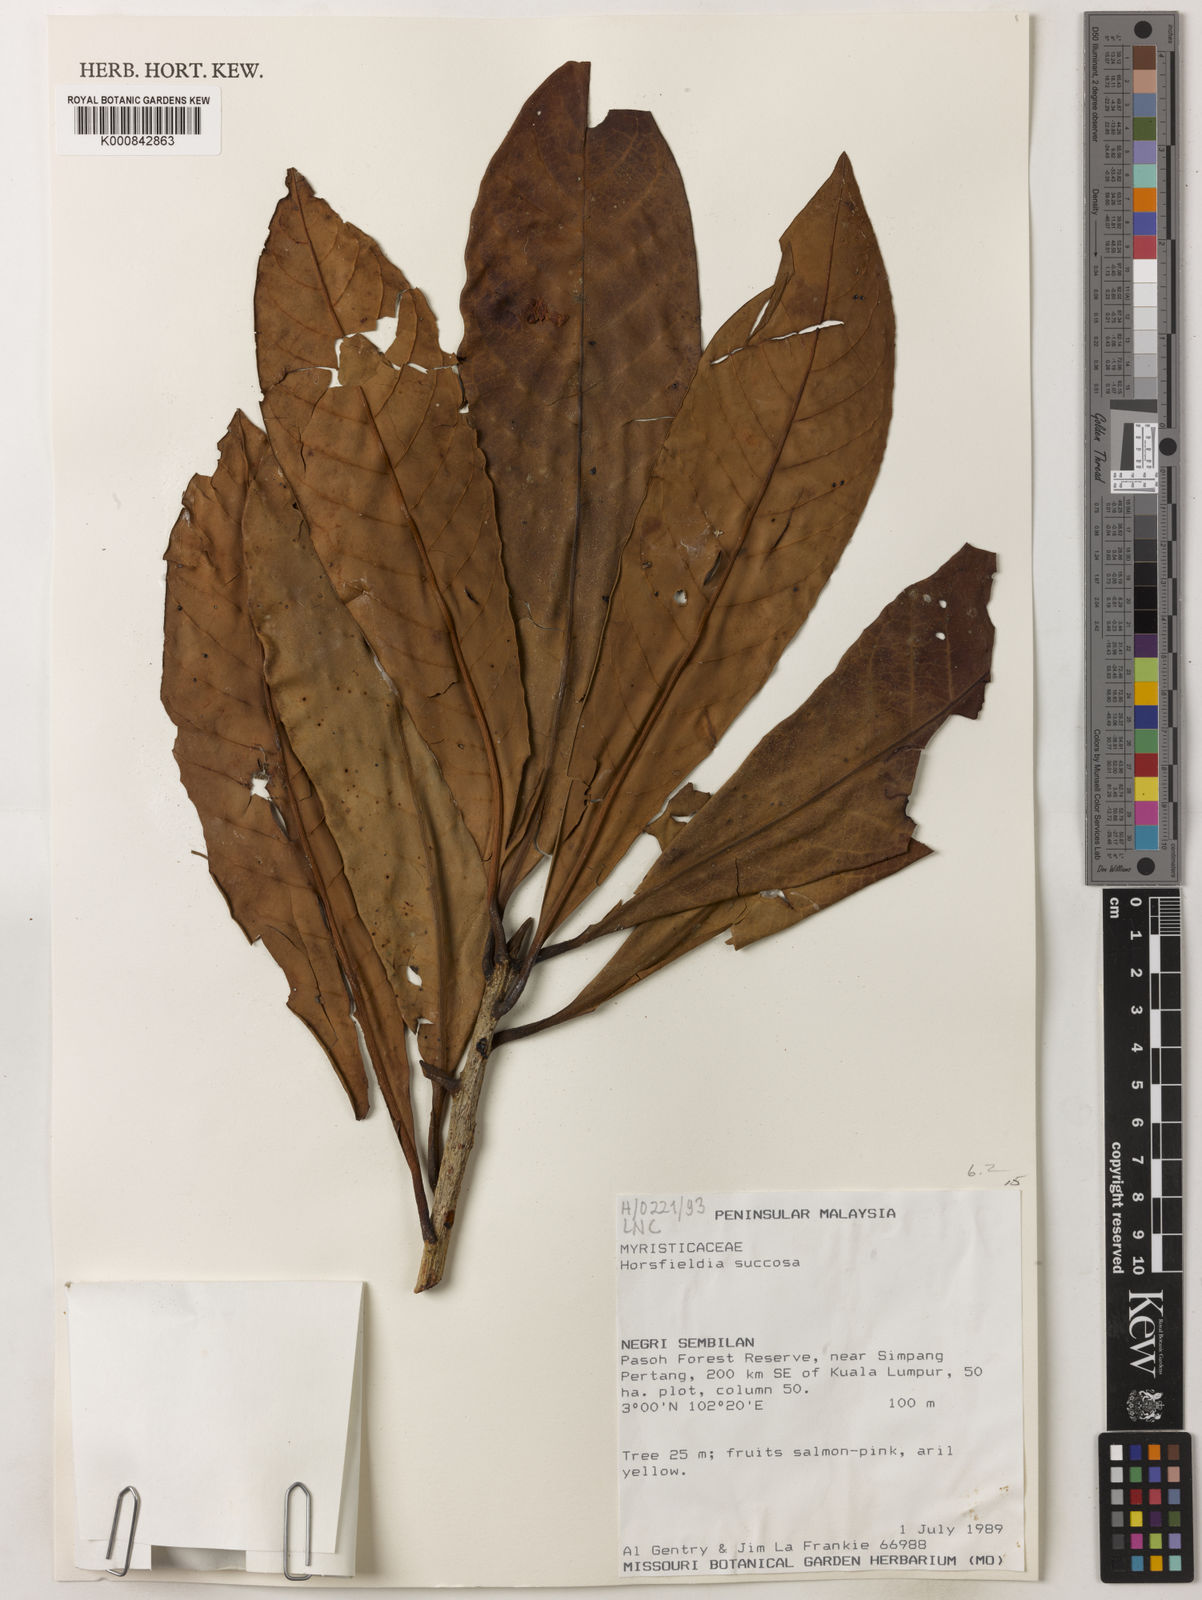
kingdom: Plantae
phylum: Tracheophyta
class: Magnoliopsida
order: Magnoliales
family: Myristicaceae
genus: Horsfieldia
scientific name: Horsfieldia sucosa
